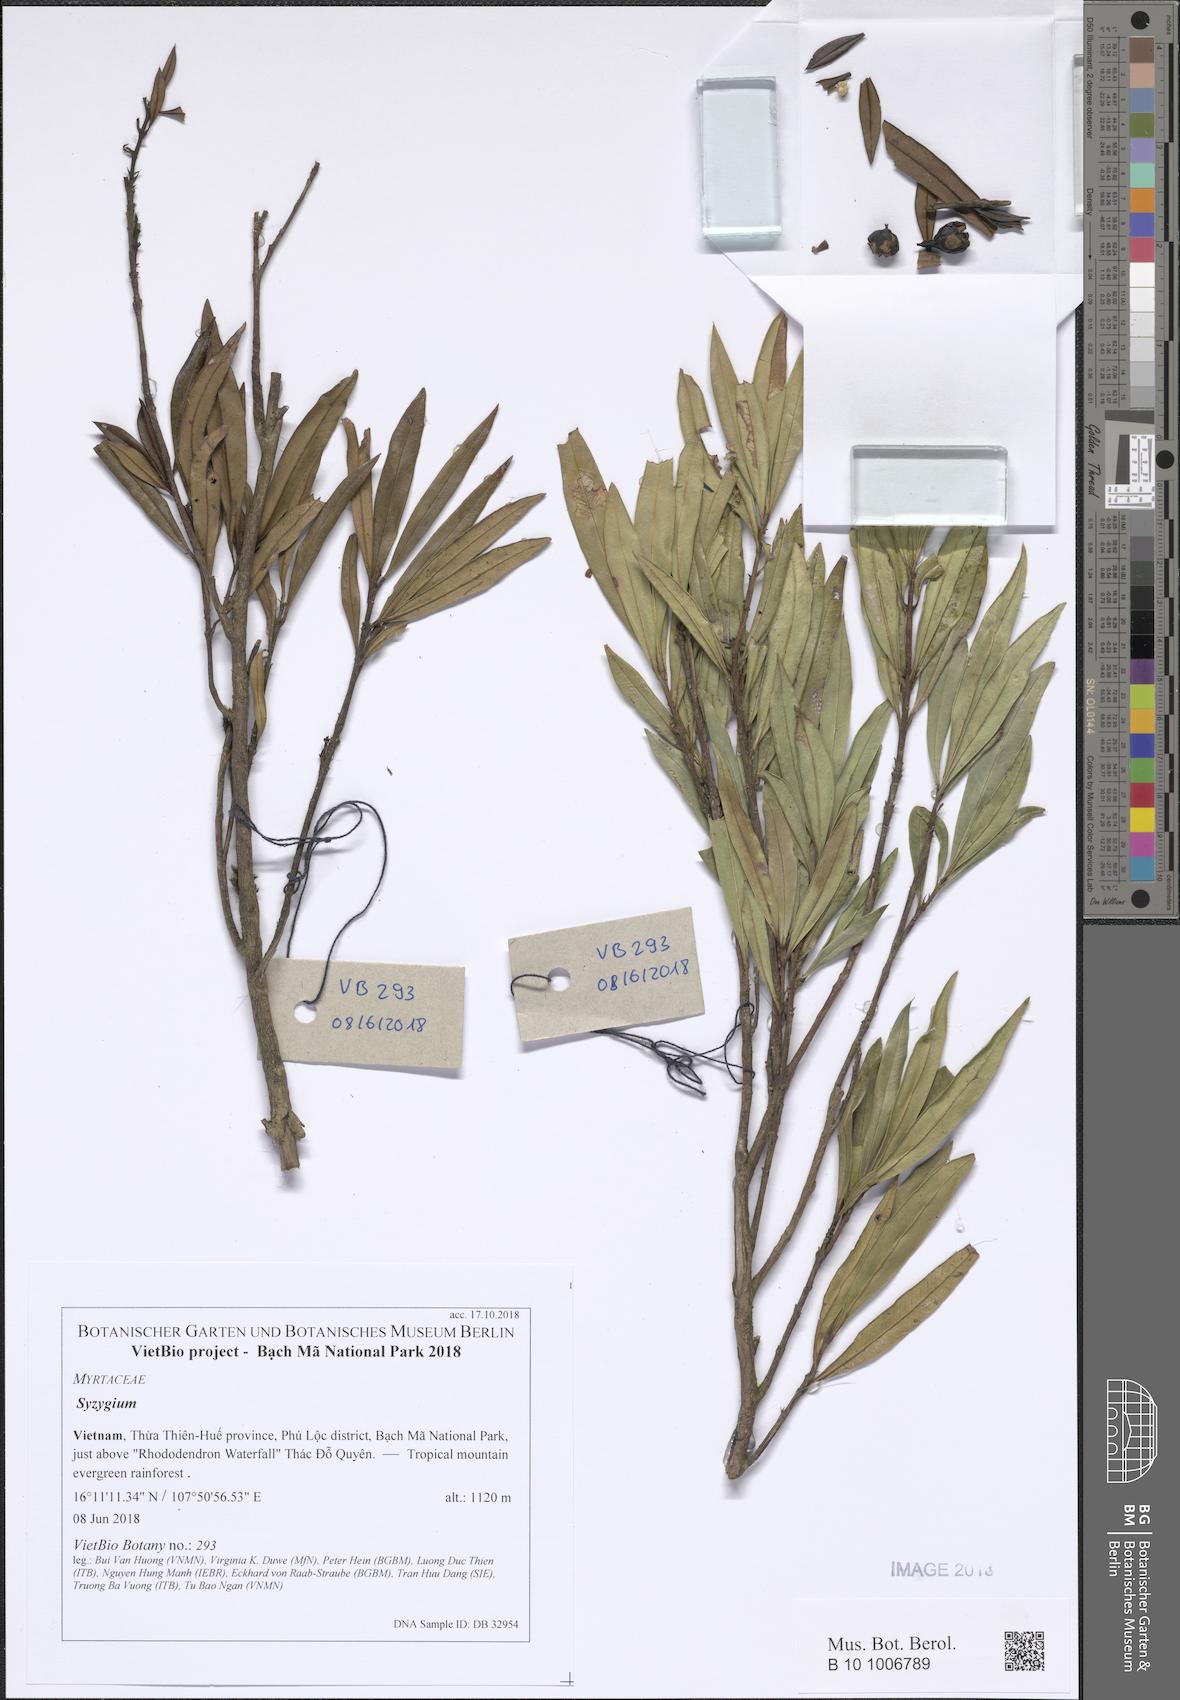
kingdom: Plantae
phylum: Tracheophyta
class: Magnoliopsida
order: Myrtales
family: Myrtaceae
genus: Syzygium
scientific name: Syzygium
